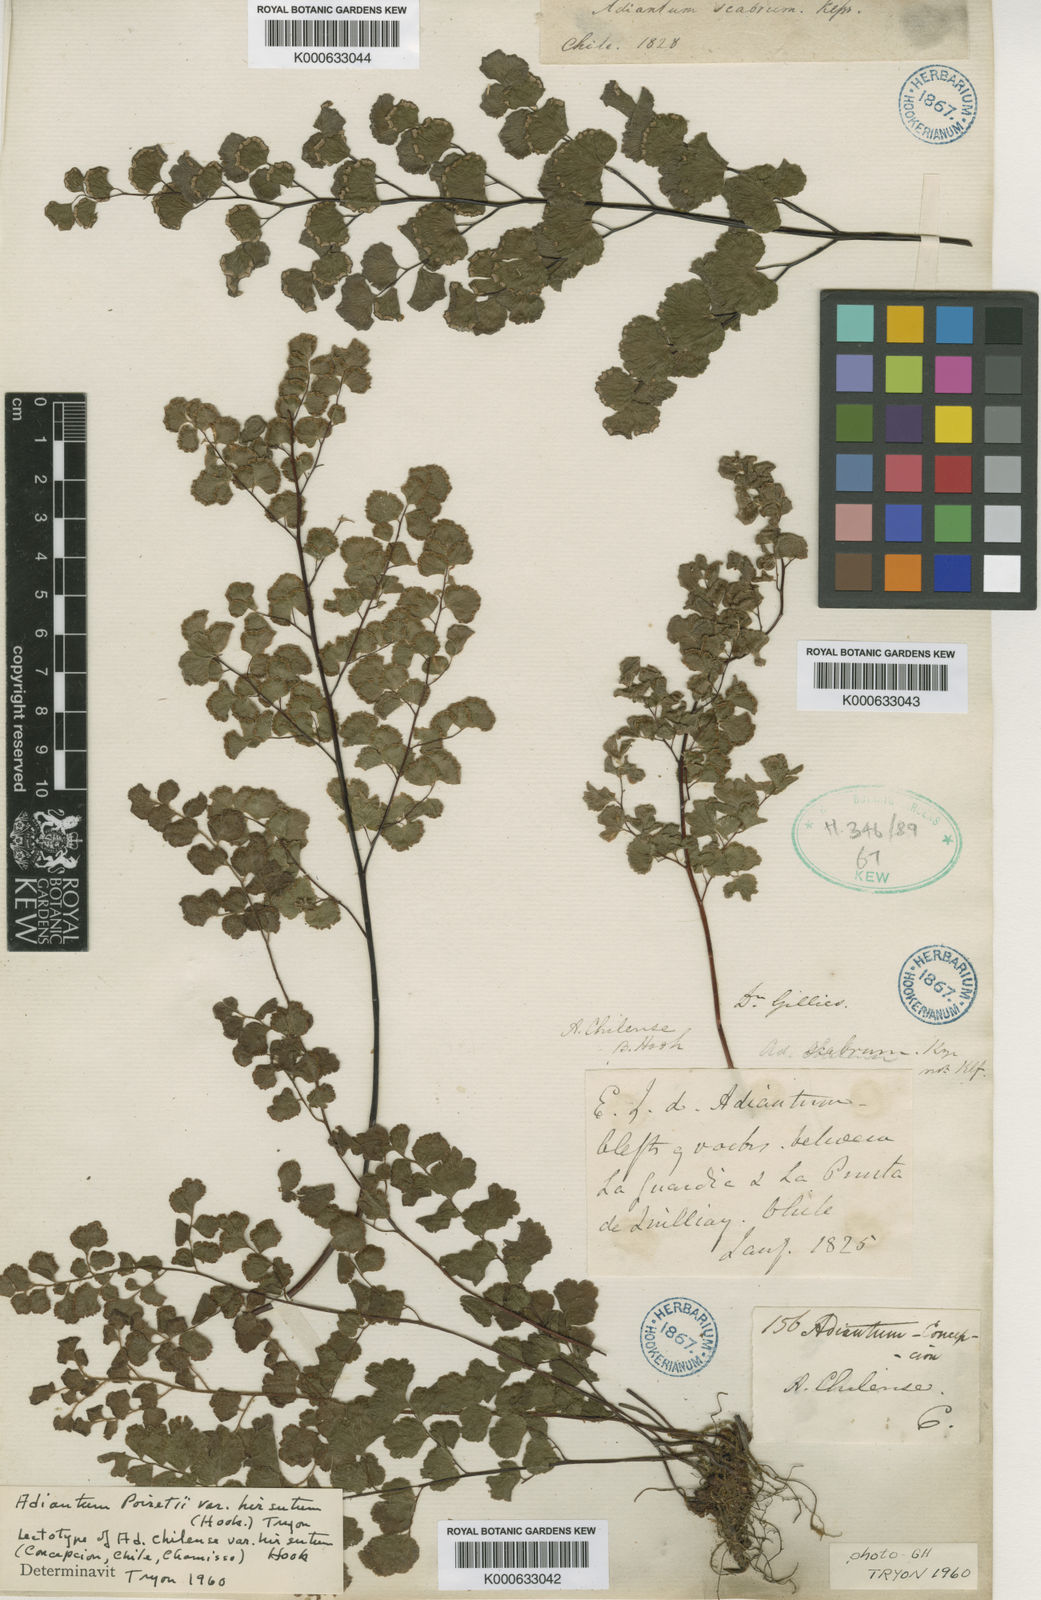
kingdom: Plantae
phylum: Tracheophyta
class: Polypodiopsida
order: Polypodiales
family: Pteridaceae
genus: Adiantum
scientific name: Adiantum poiretii
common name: Mexican maidenhair
